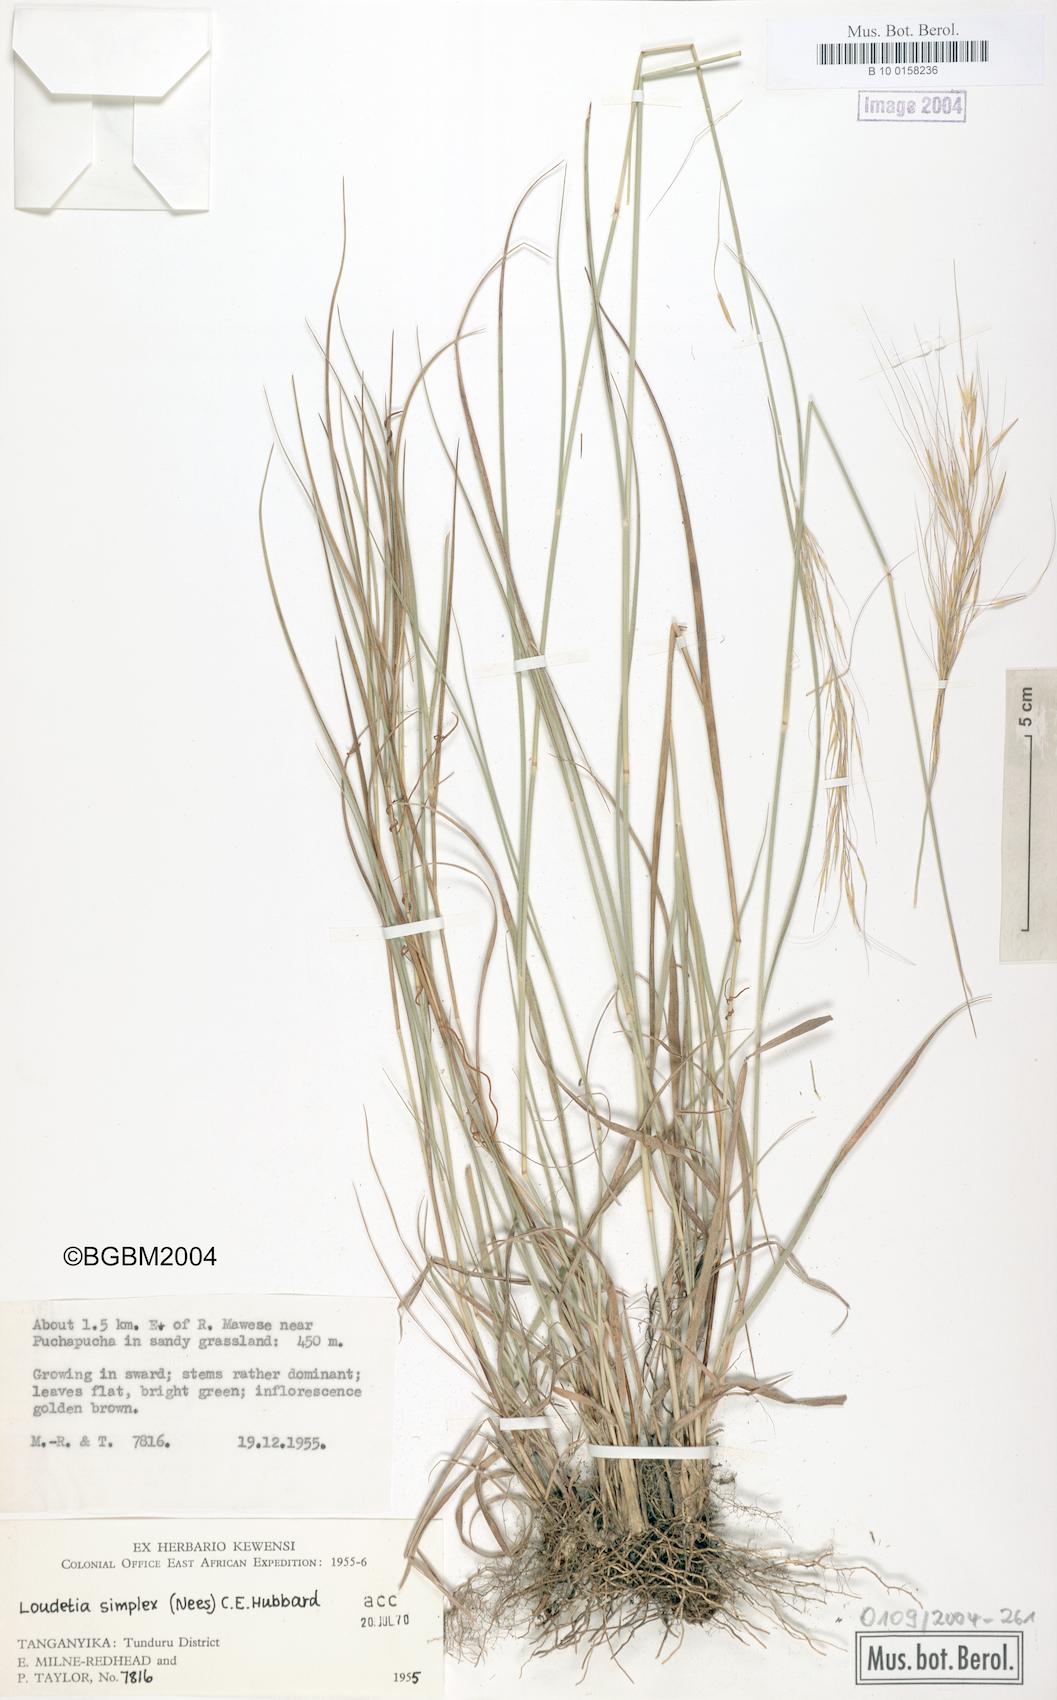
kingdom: Plantae
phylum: Tracheophyta
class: Liliopsida
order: Poales
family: Poaceae
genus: Loudetia
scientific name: Loudetia simplex
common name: Common russet grass
